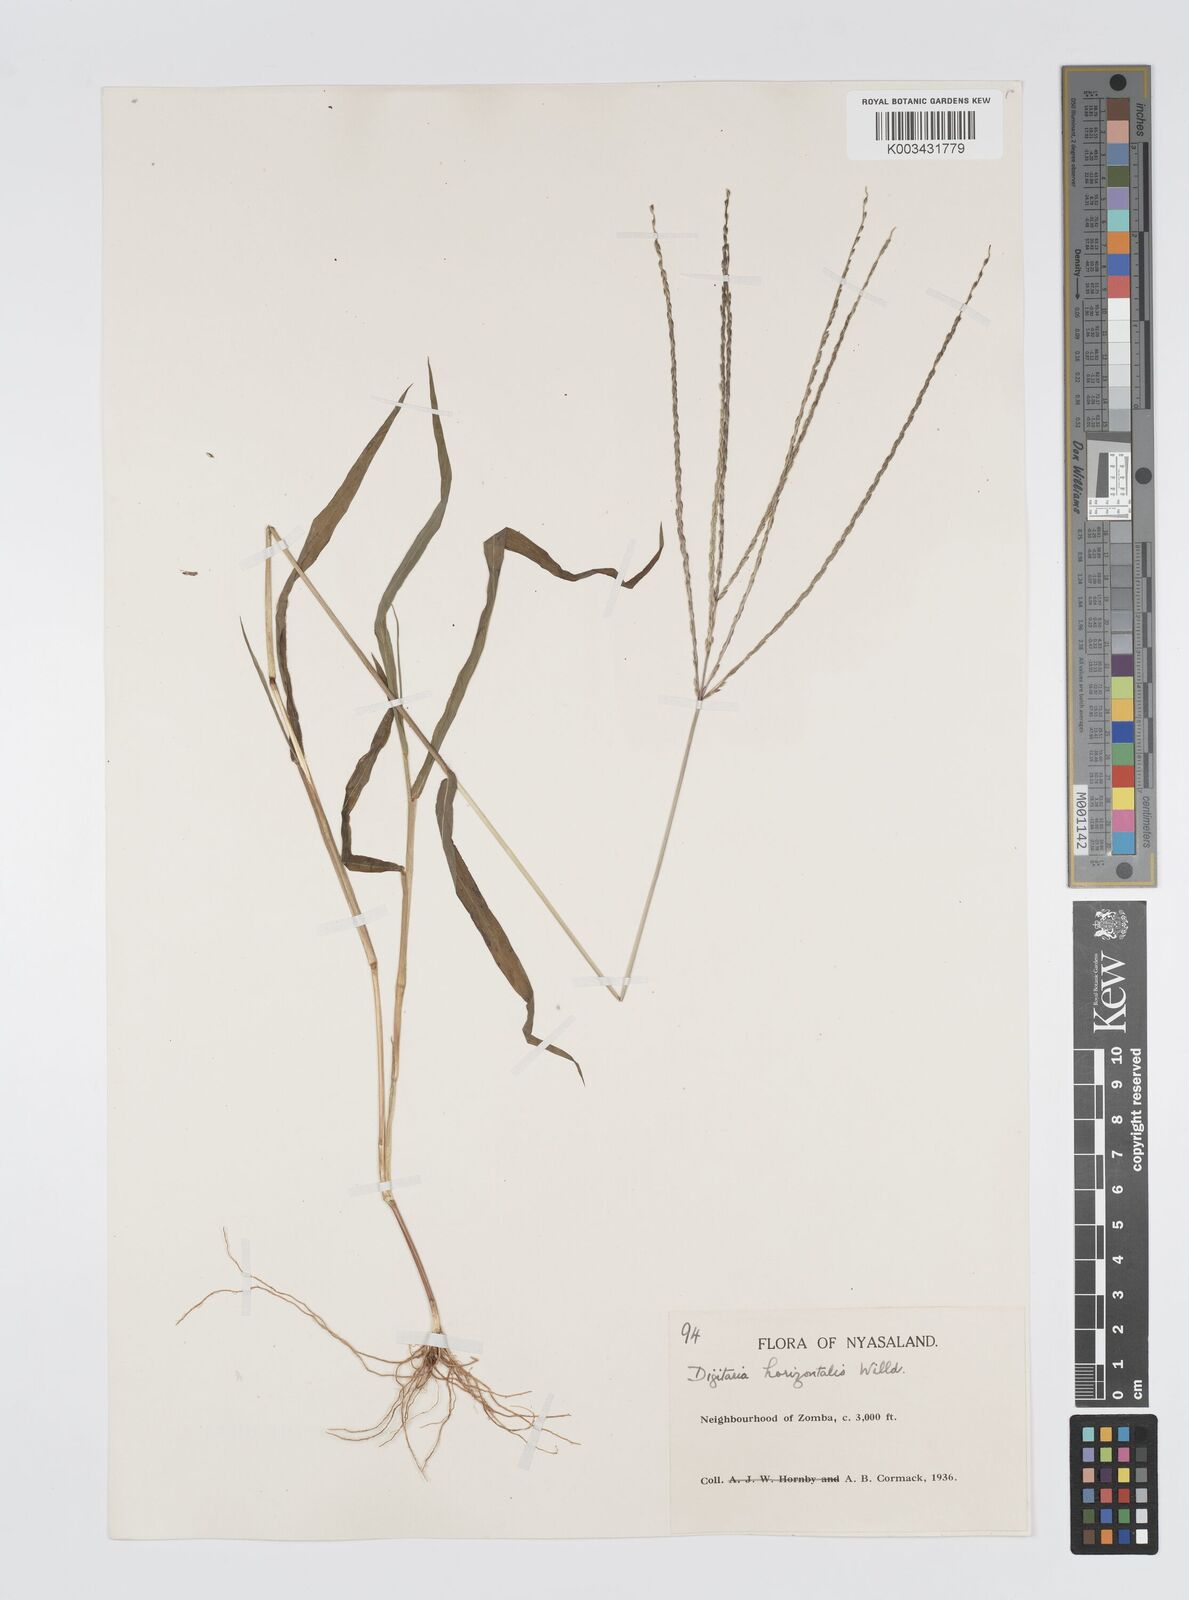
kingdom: Plantae
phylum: Tracheophyta
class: Liliopsida
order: Poales
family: Poaceae
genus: Digitaria
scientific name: Digitaria nuda
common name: Naked crabgrass
